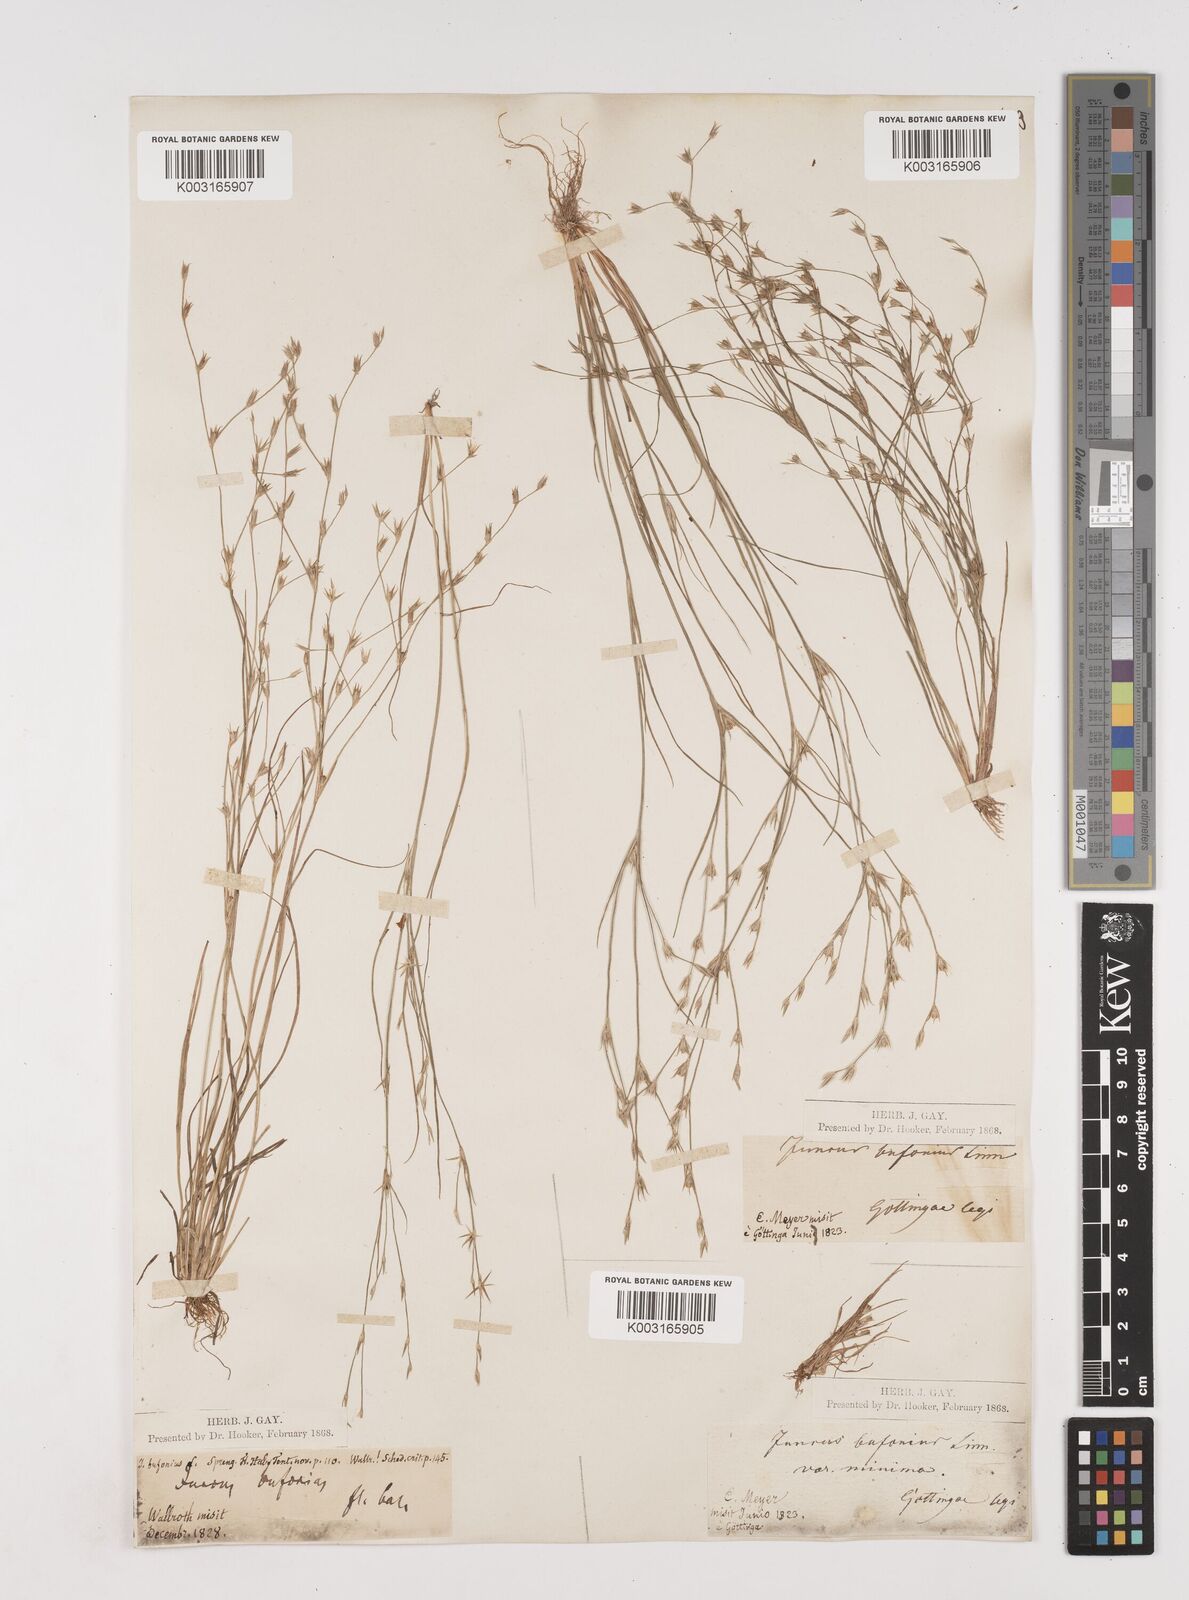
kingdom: Plantae
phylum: Tracheophyta
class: Liliopsida
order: Poales
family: Juncaceae
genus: Juncus
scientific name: Juncus bufonius
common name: Toad rush
